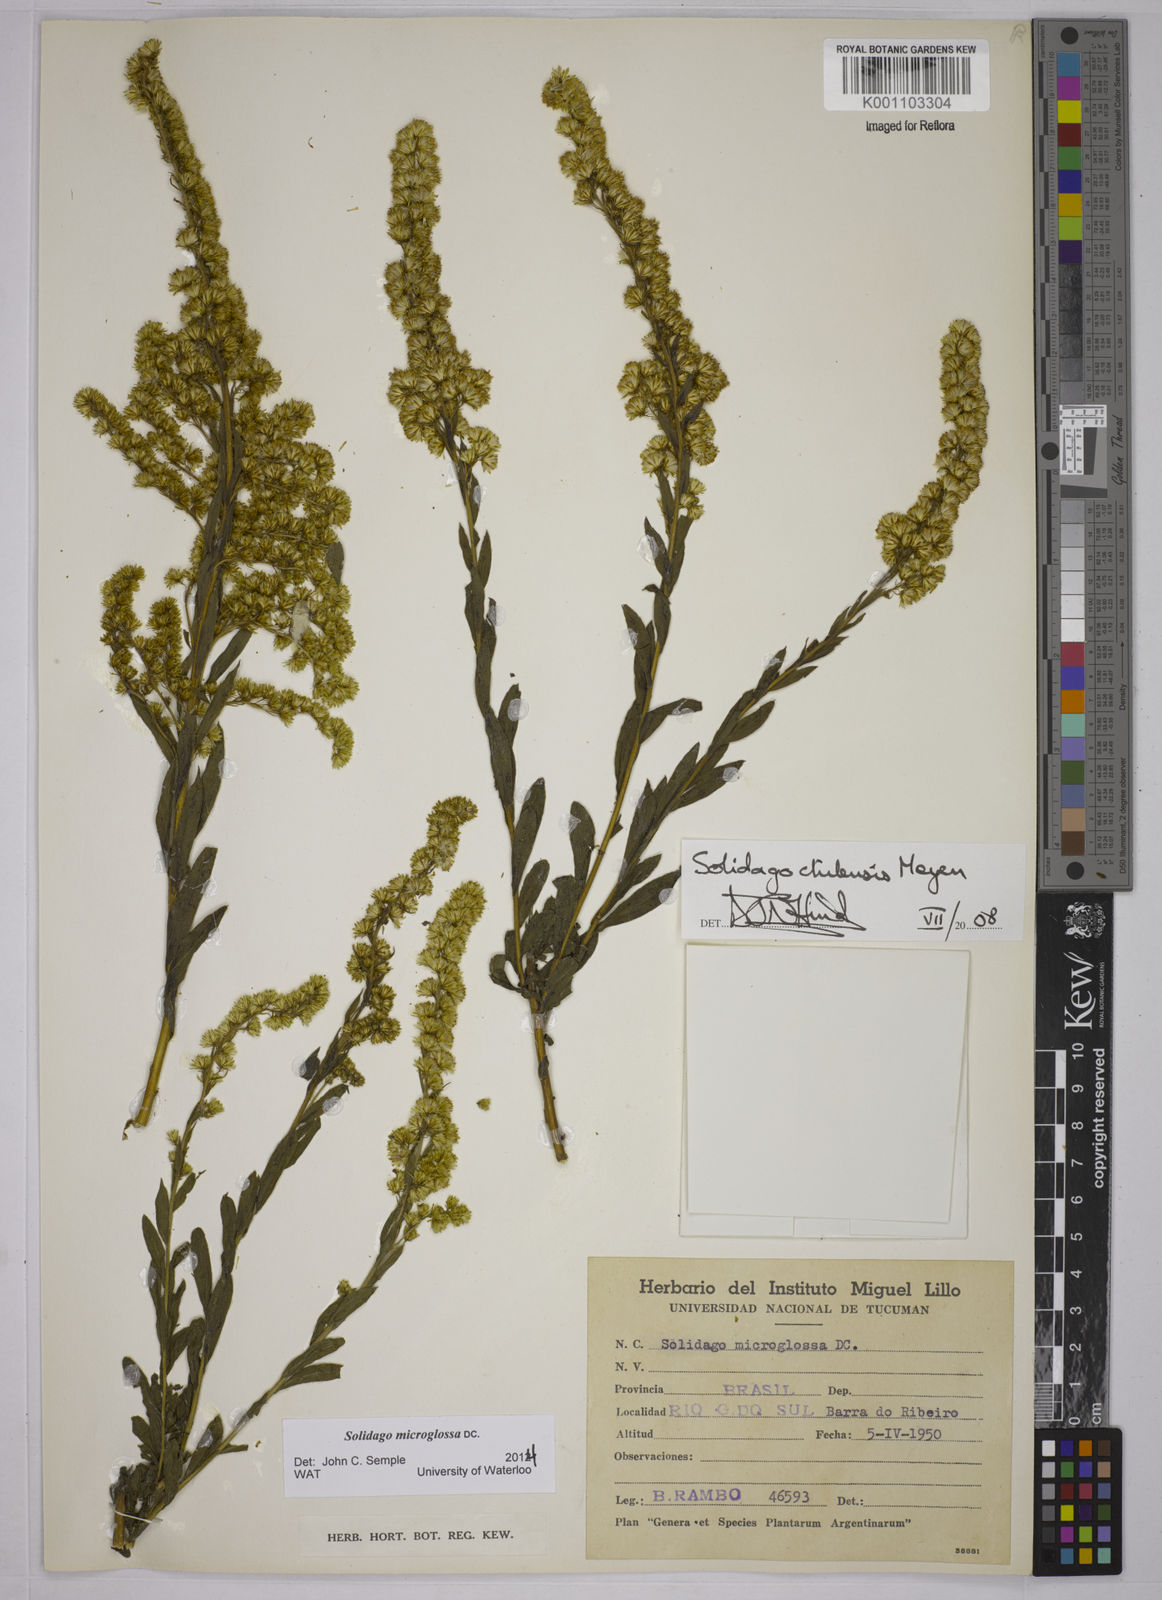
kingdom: Plantae
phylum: Tracheophyta
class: Magnoliopsida
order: Asterales
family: Asteraceae
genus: Solidago
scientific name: Solidago chilensis
